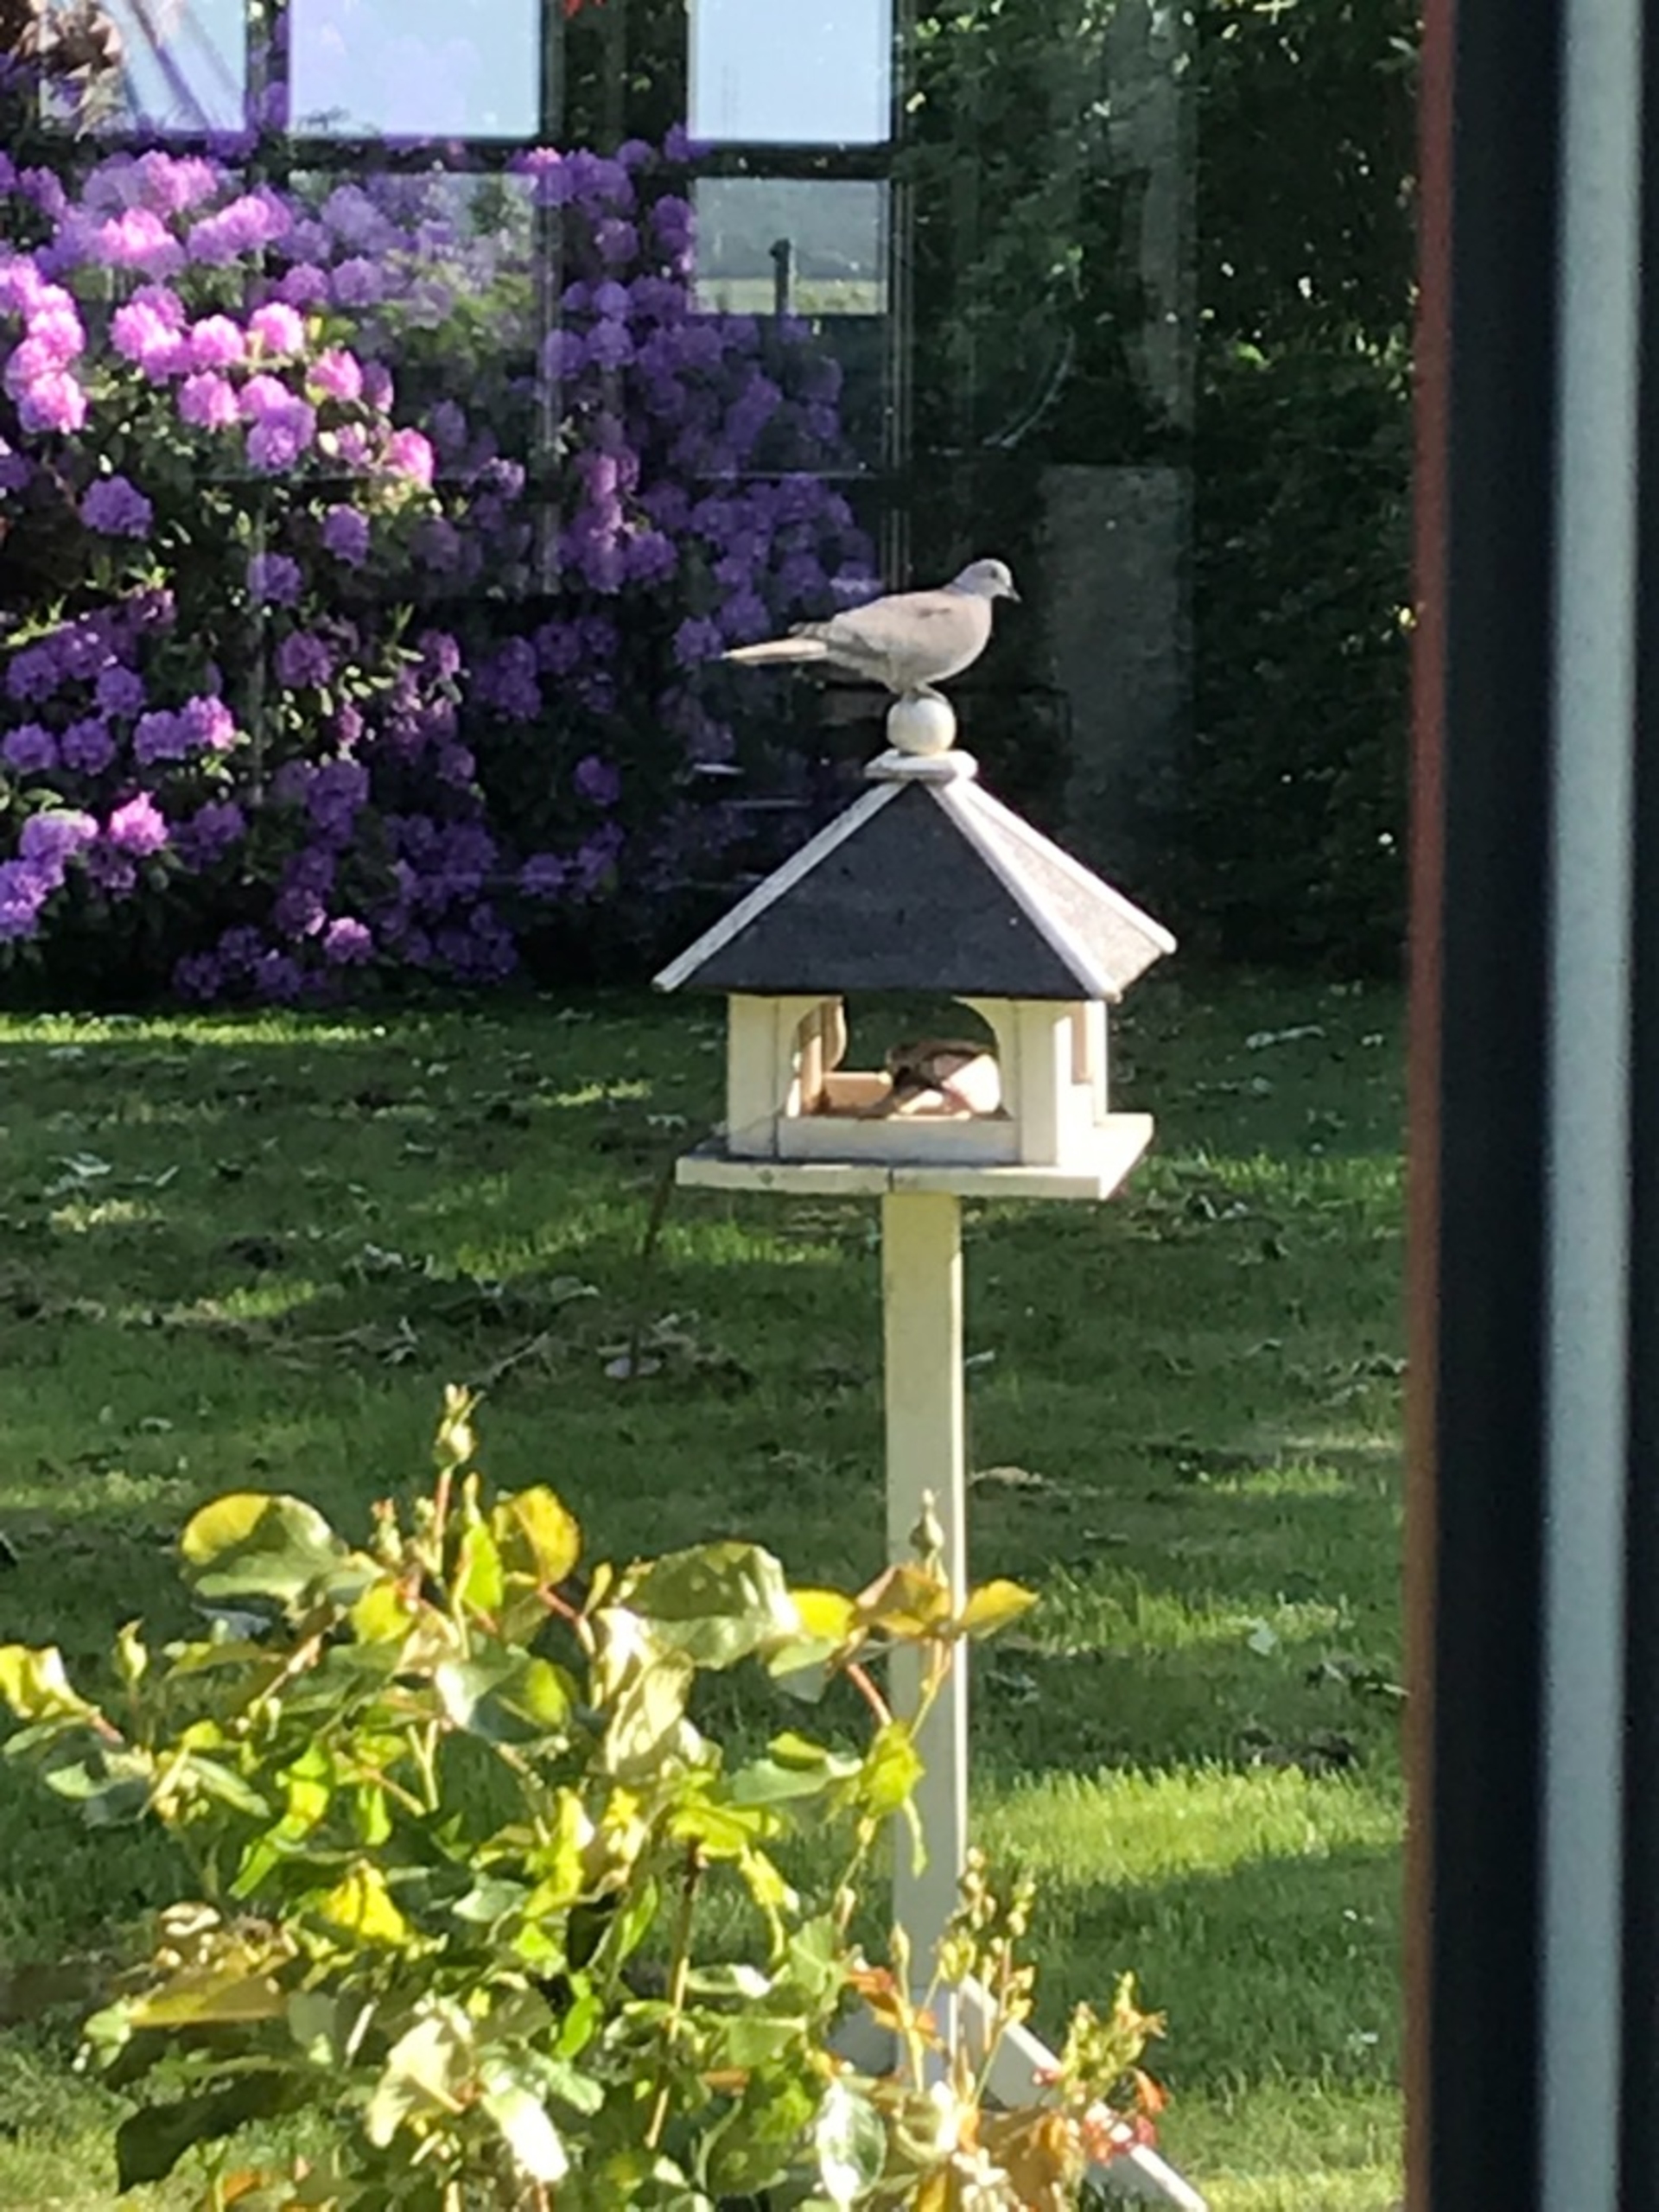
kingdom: Animalia
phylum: Chordata
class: Aves
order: Columbiformes
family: Columbidae
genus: Streptopelia
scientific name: Streptopelia decaocto
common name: Tyrkerdue
